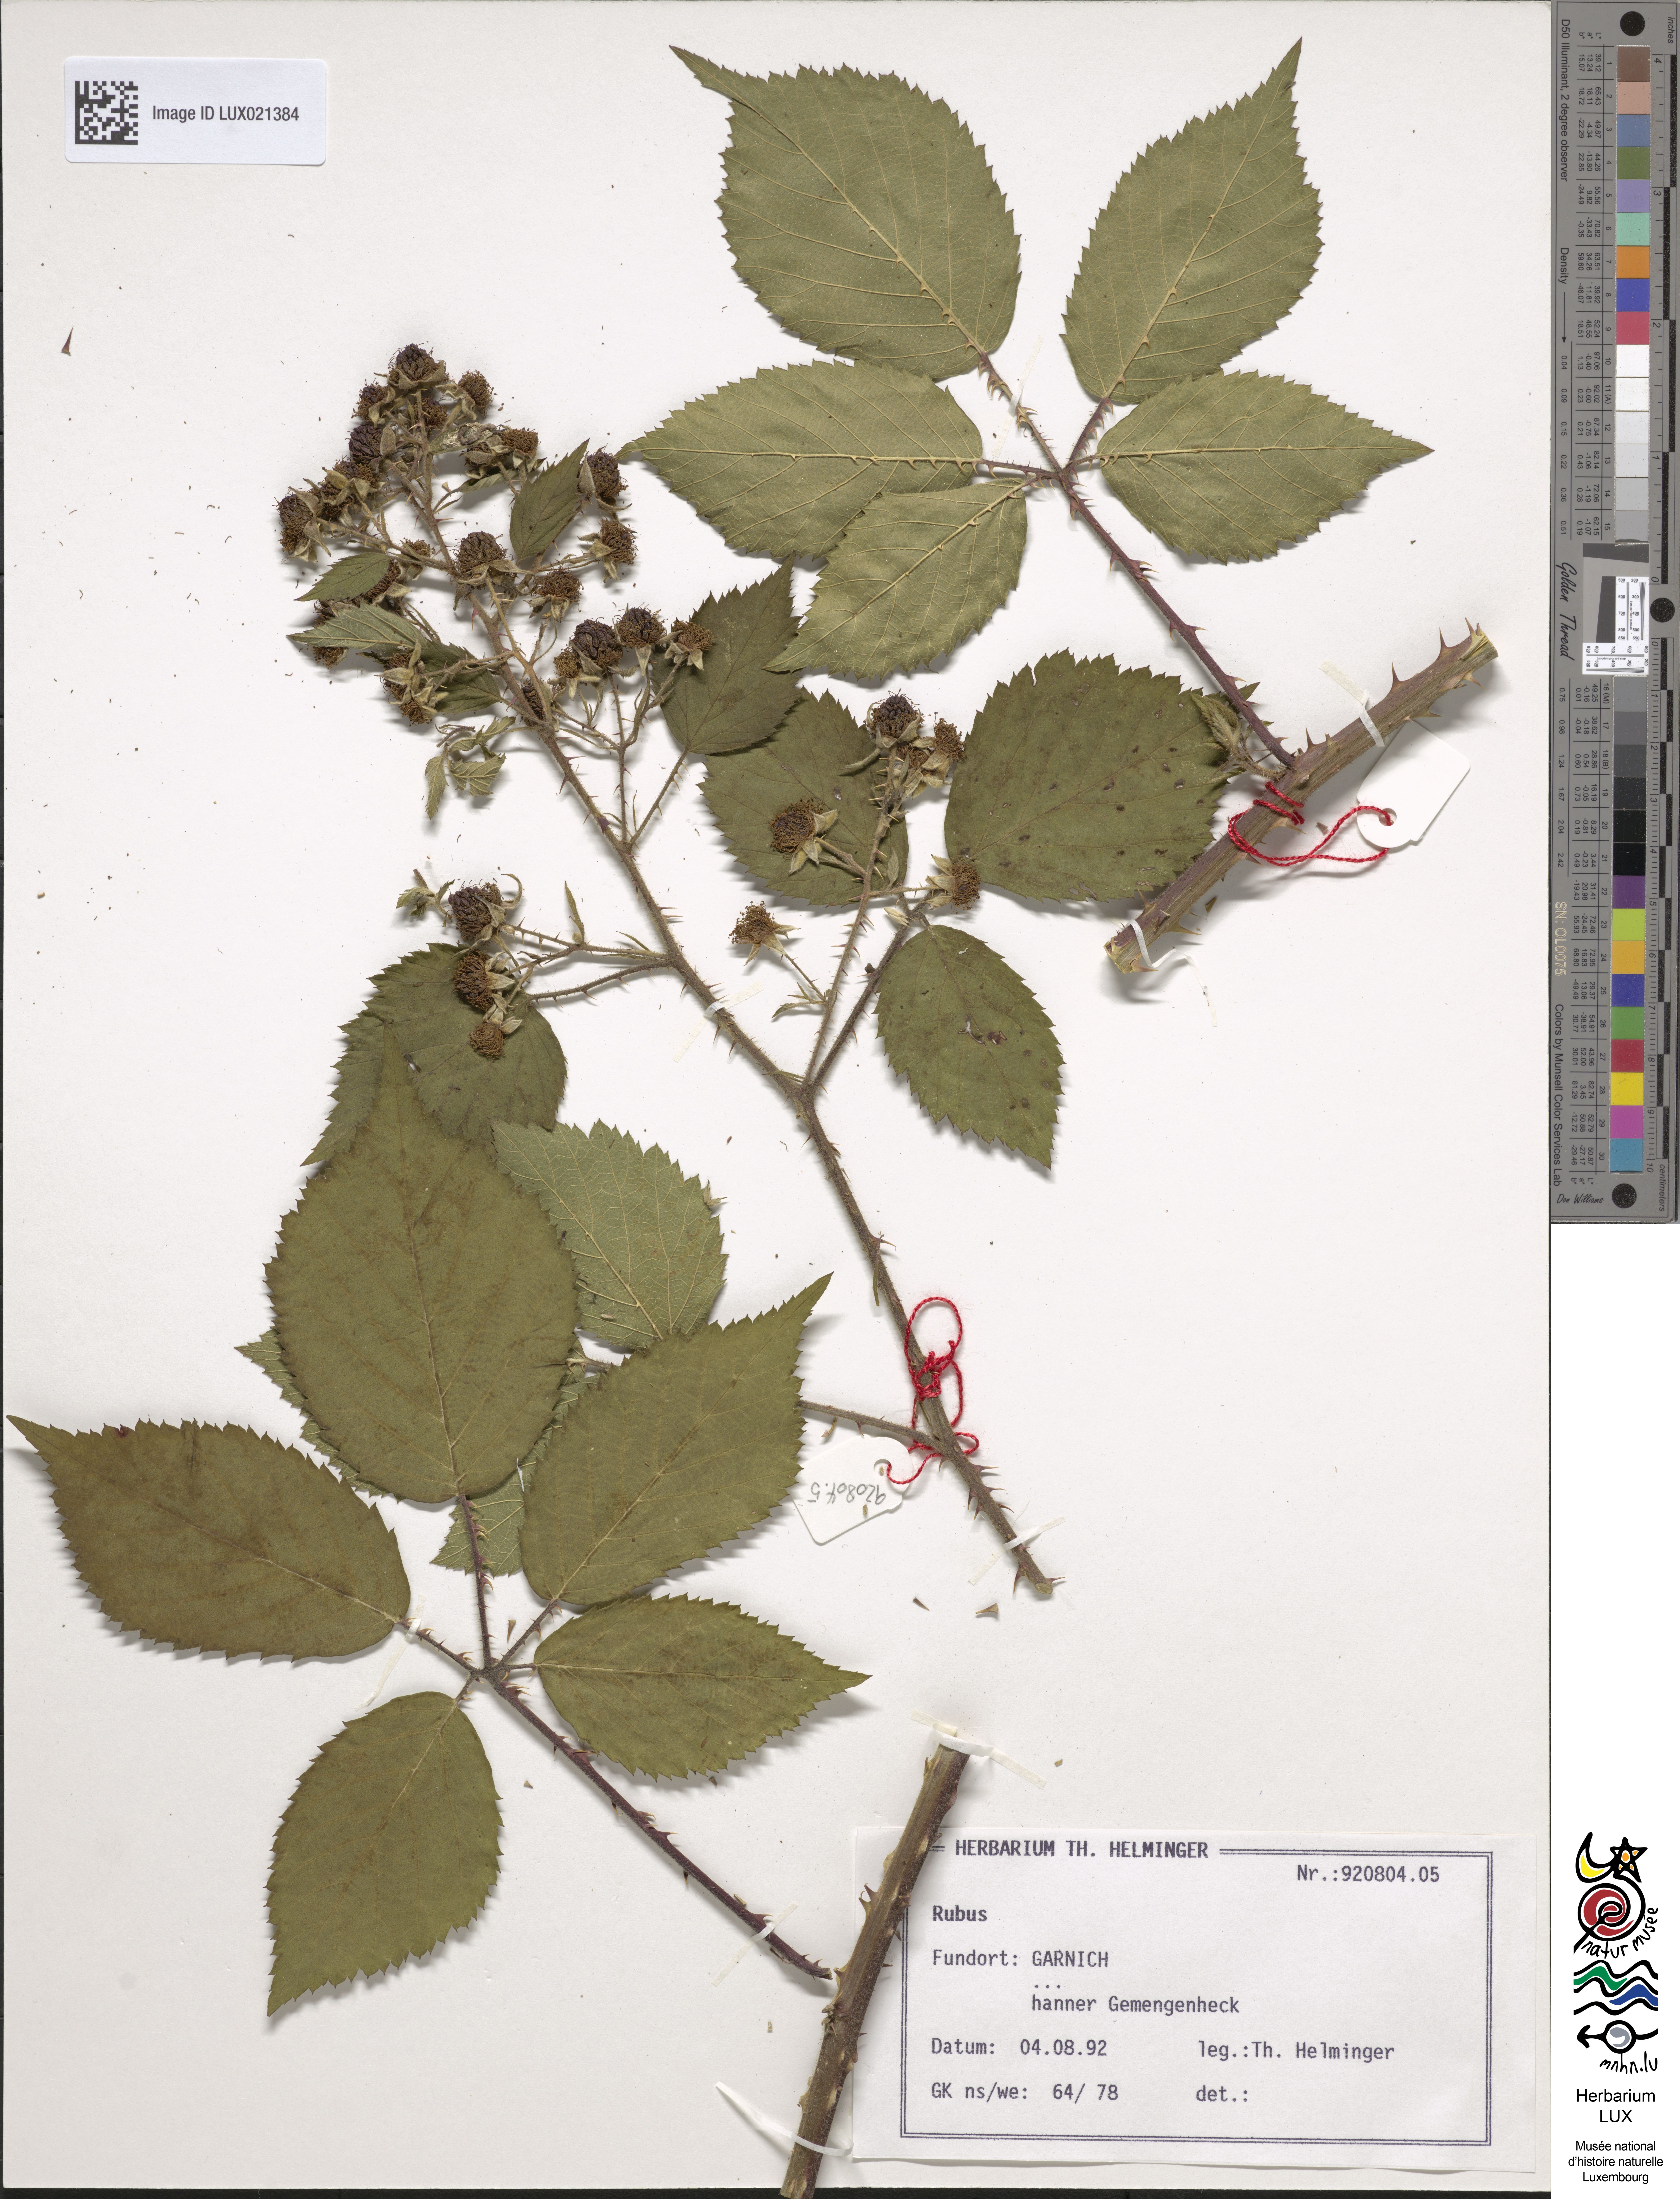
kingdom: Plantae
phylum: Tracheophyta
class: Magnoliopsida
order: Rosales
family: Rosaceae
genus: Rubus
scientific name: Rubus
